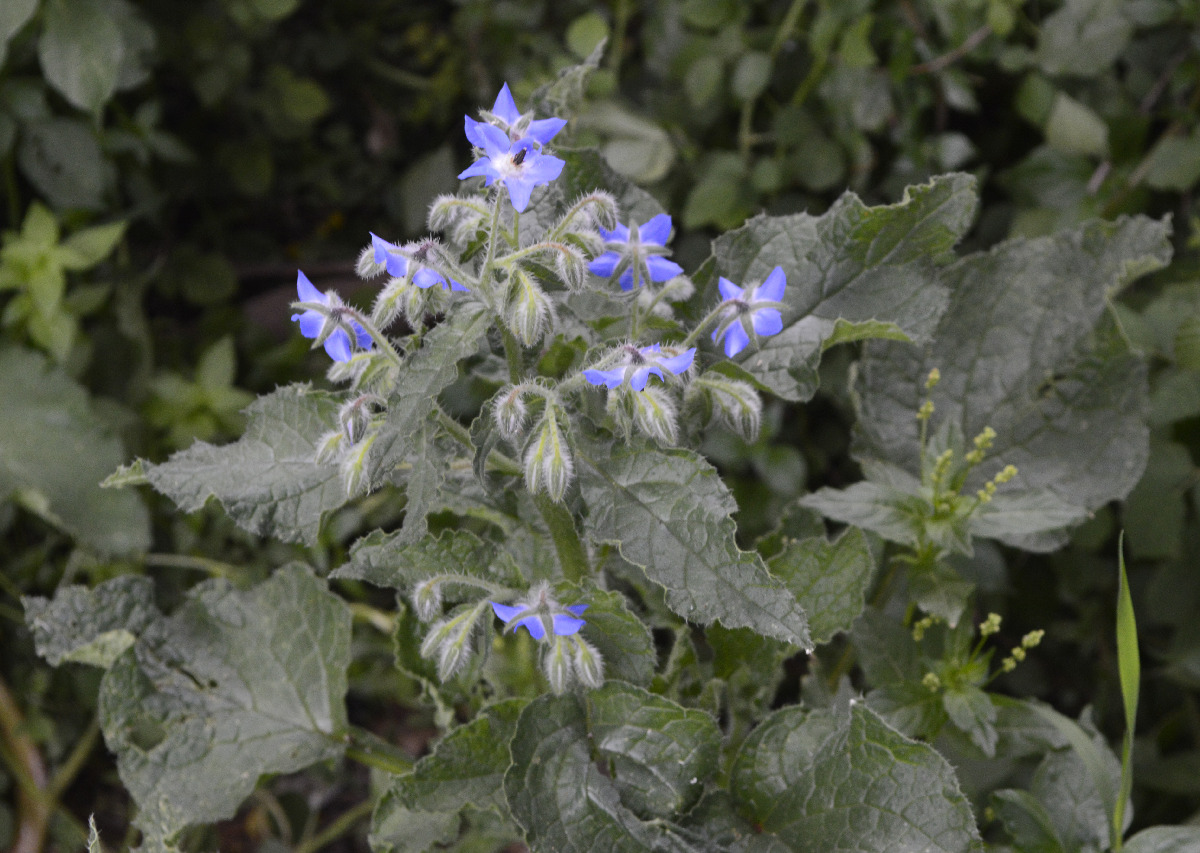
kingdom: Plantae
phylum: Tracheophyta
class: Magnoliopsida
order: Boraginales
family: Boraginaceae
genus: Borago
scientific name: Borago officinalis
